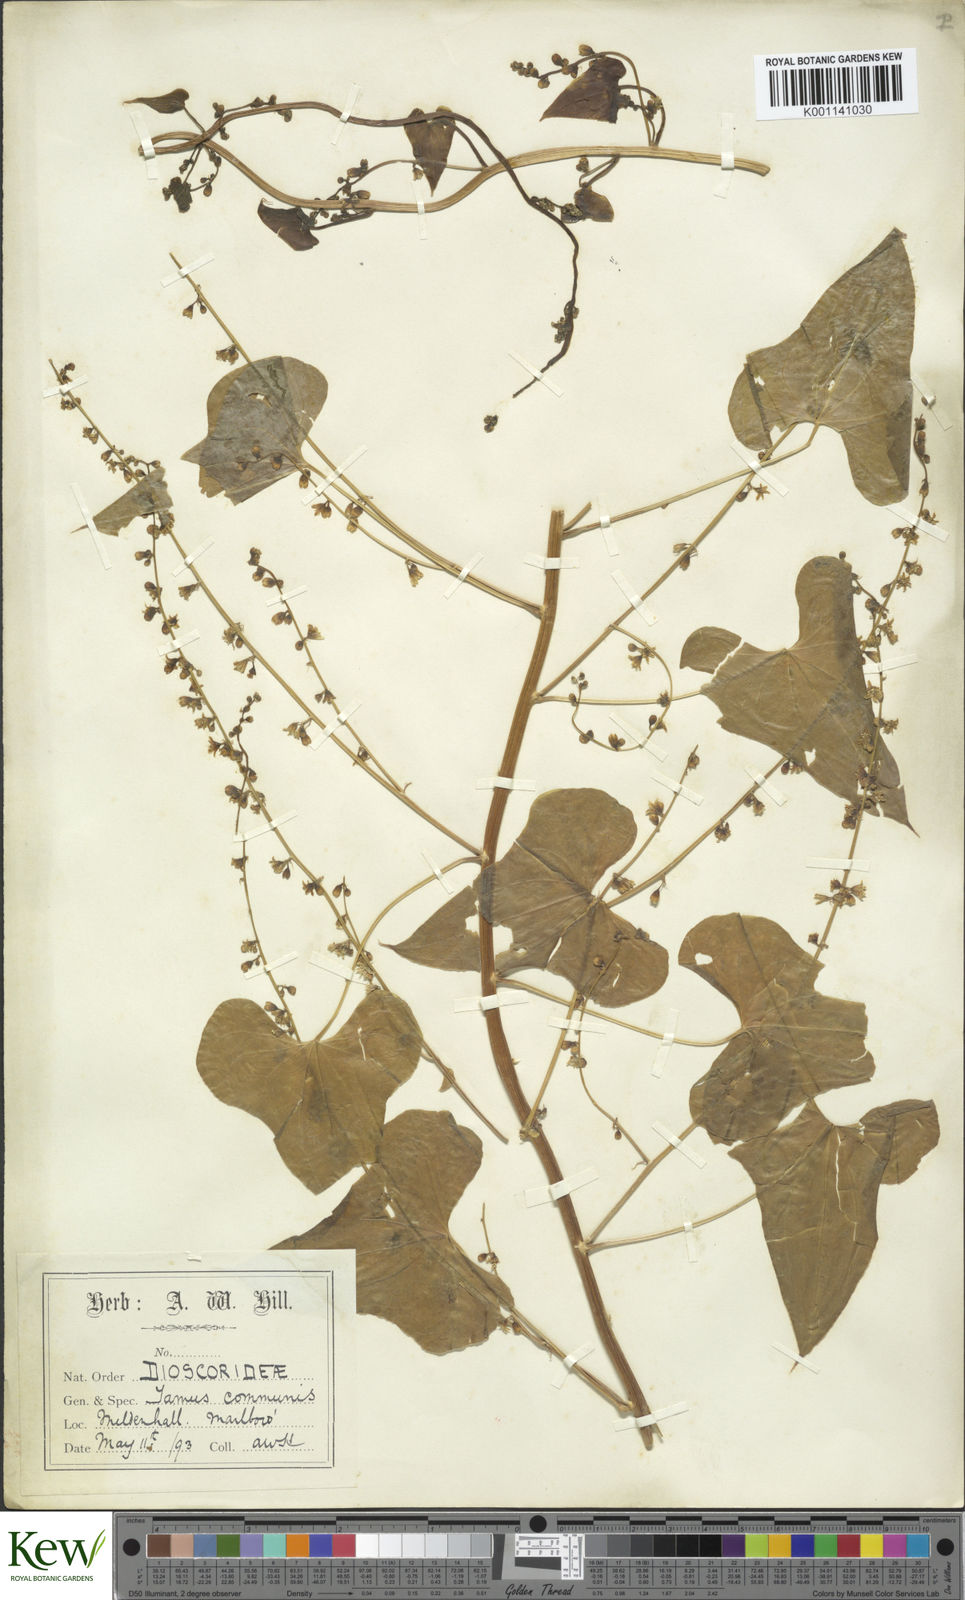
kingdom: Plantae
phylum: Tracheophyta
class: Liliopsida
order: Dioscoreales
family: Dioscoreaceae
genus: Dioscorea
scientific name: Dioscorea communis
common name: Black-bindweed
